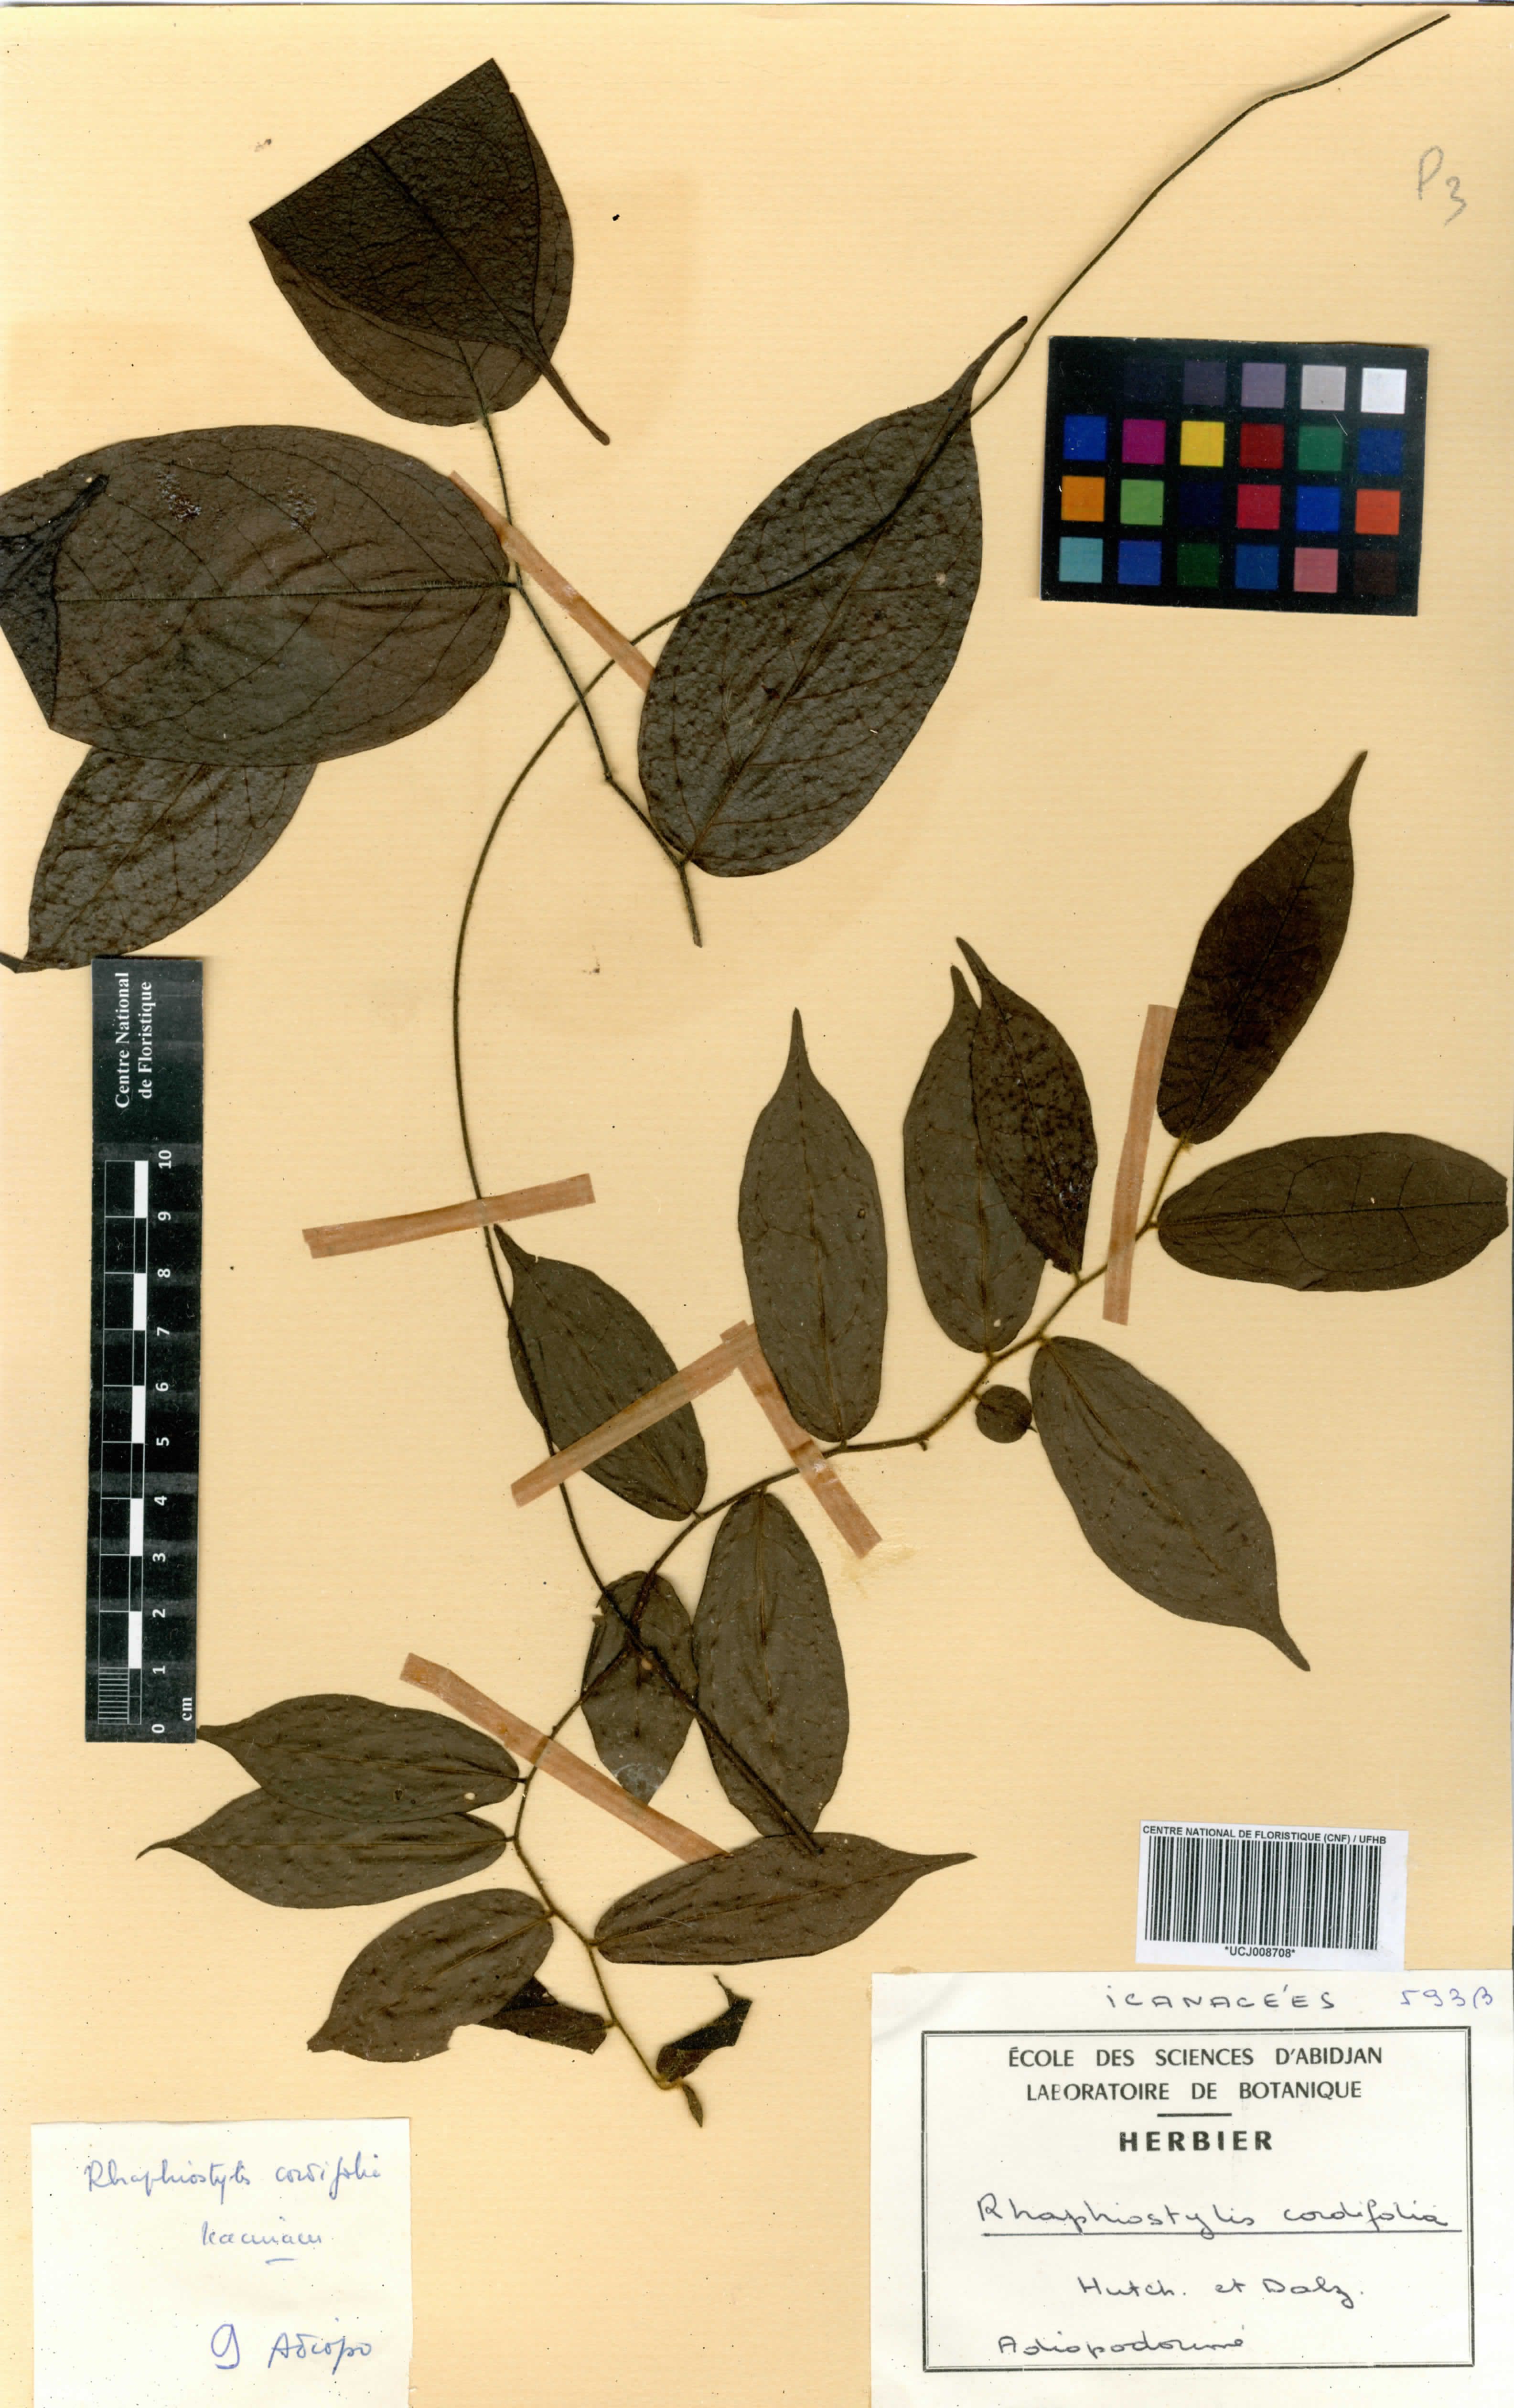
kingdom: Plantae
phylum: Tracheophyta
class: Magnoliopsida
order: Metteniusales
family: Metteniusaceae
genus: Rhaphiostylis
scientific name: Rhaphiostylis cordifolia
